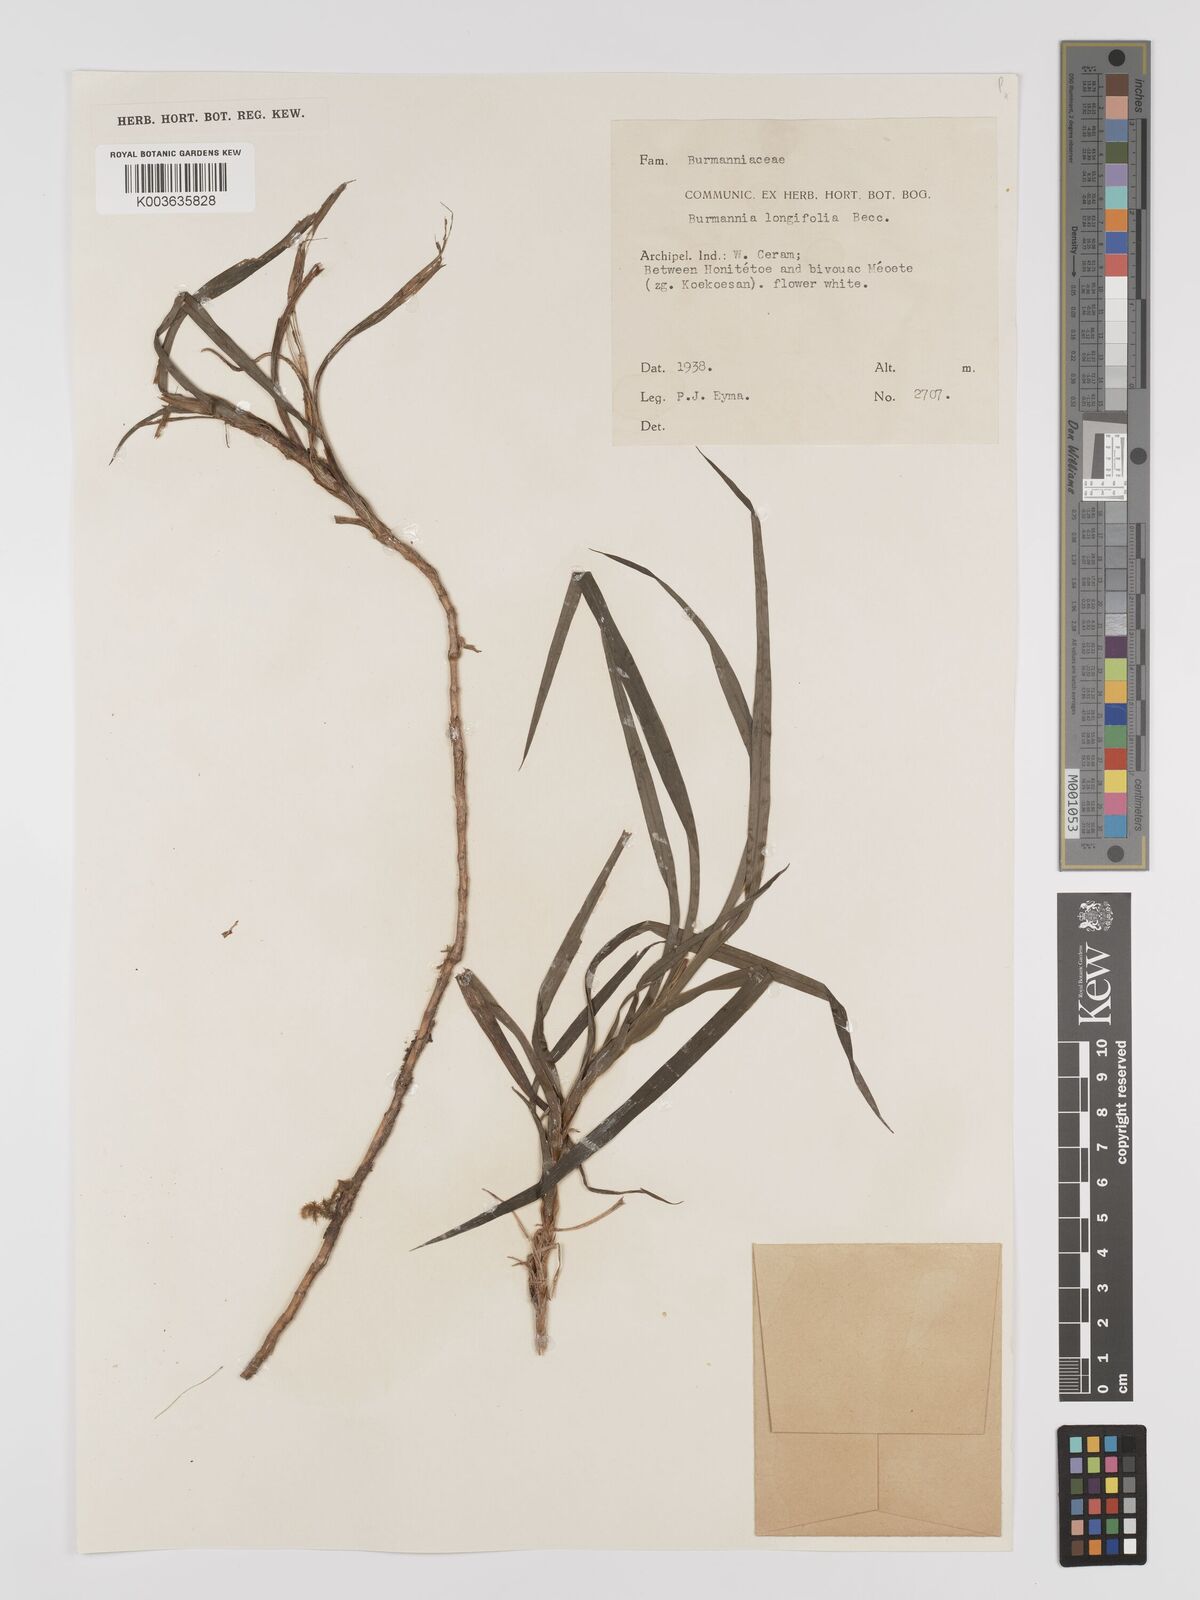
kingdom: Plantae
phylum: Tracheophyta
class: Liliopsida
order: Dioscoreales
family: Burmanniaceae
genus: Burmannia
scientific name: Burmannia longifolia
